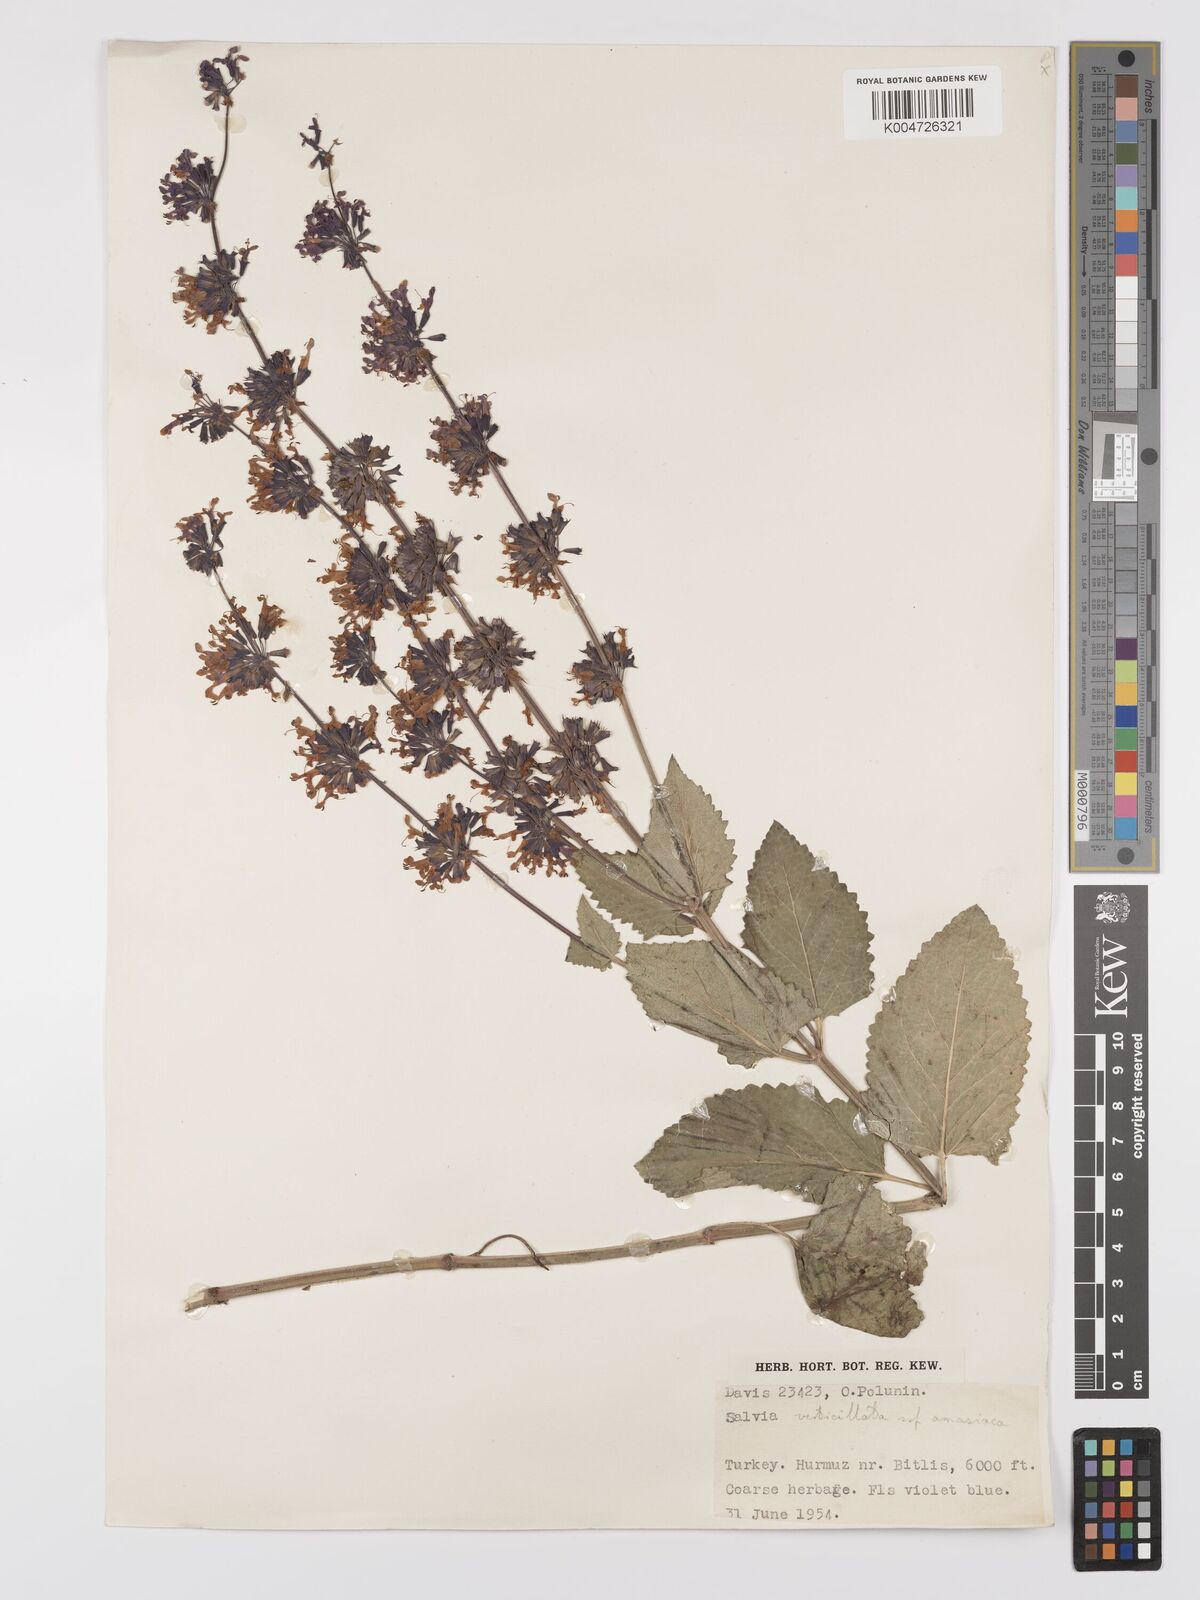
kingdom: Plantae
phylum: Tracheophyta
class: Magnoliopsida
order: Lamiales
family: Lamiaceae
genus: Salvia
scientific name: Salvia verticillata
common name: Whorled clary
